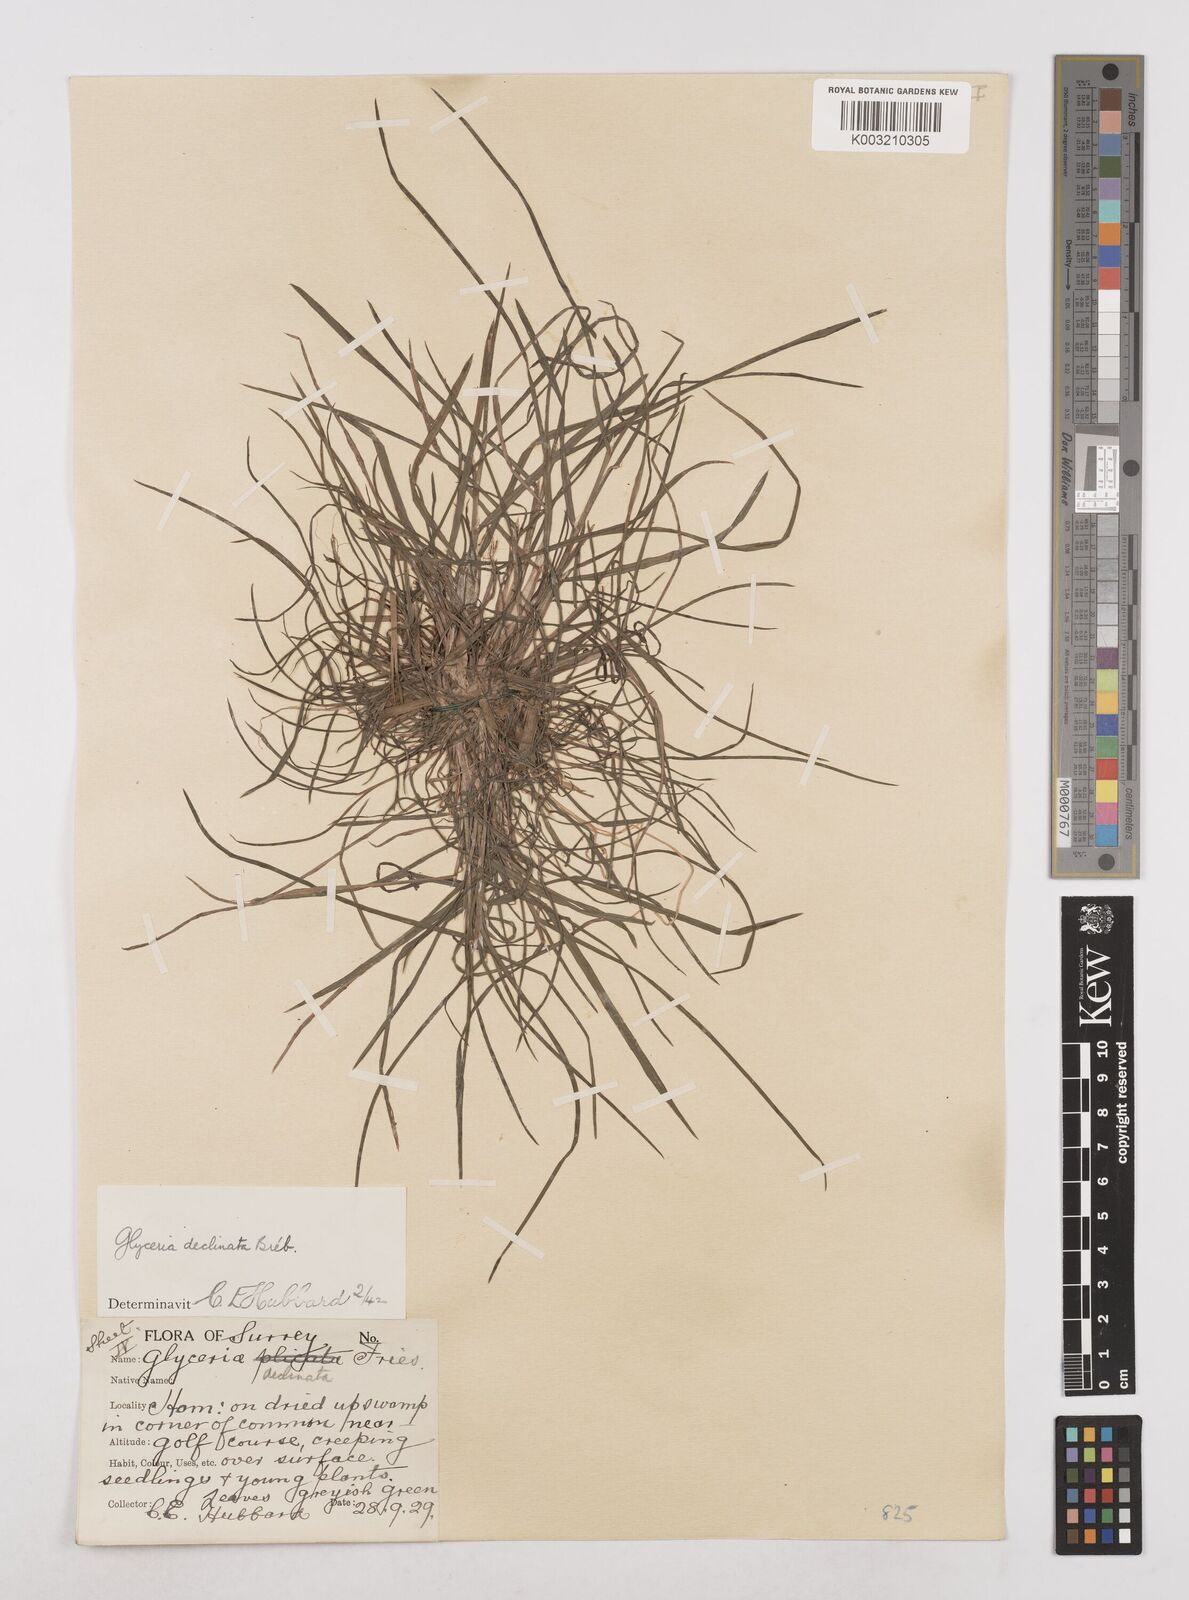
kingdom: Plantae
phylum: Tracheophyta
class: Liliopsida
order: Poales
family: Poaceae
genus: Glyceria
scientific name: Glyceria declinata
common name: Small sweet-grass
